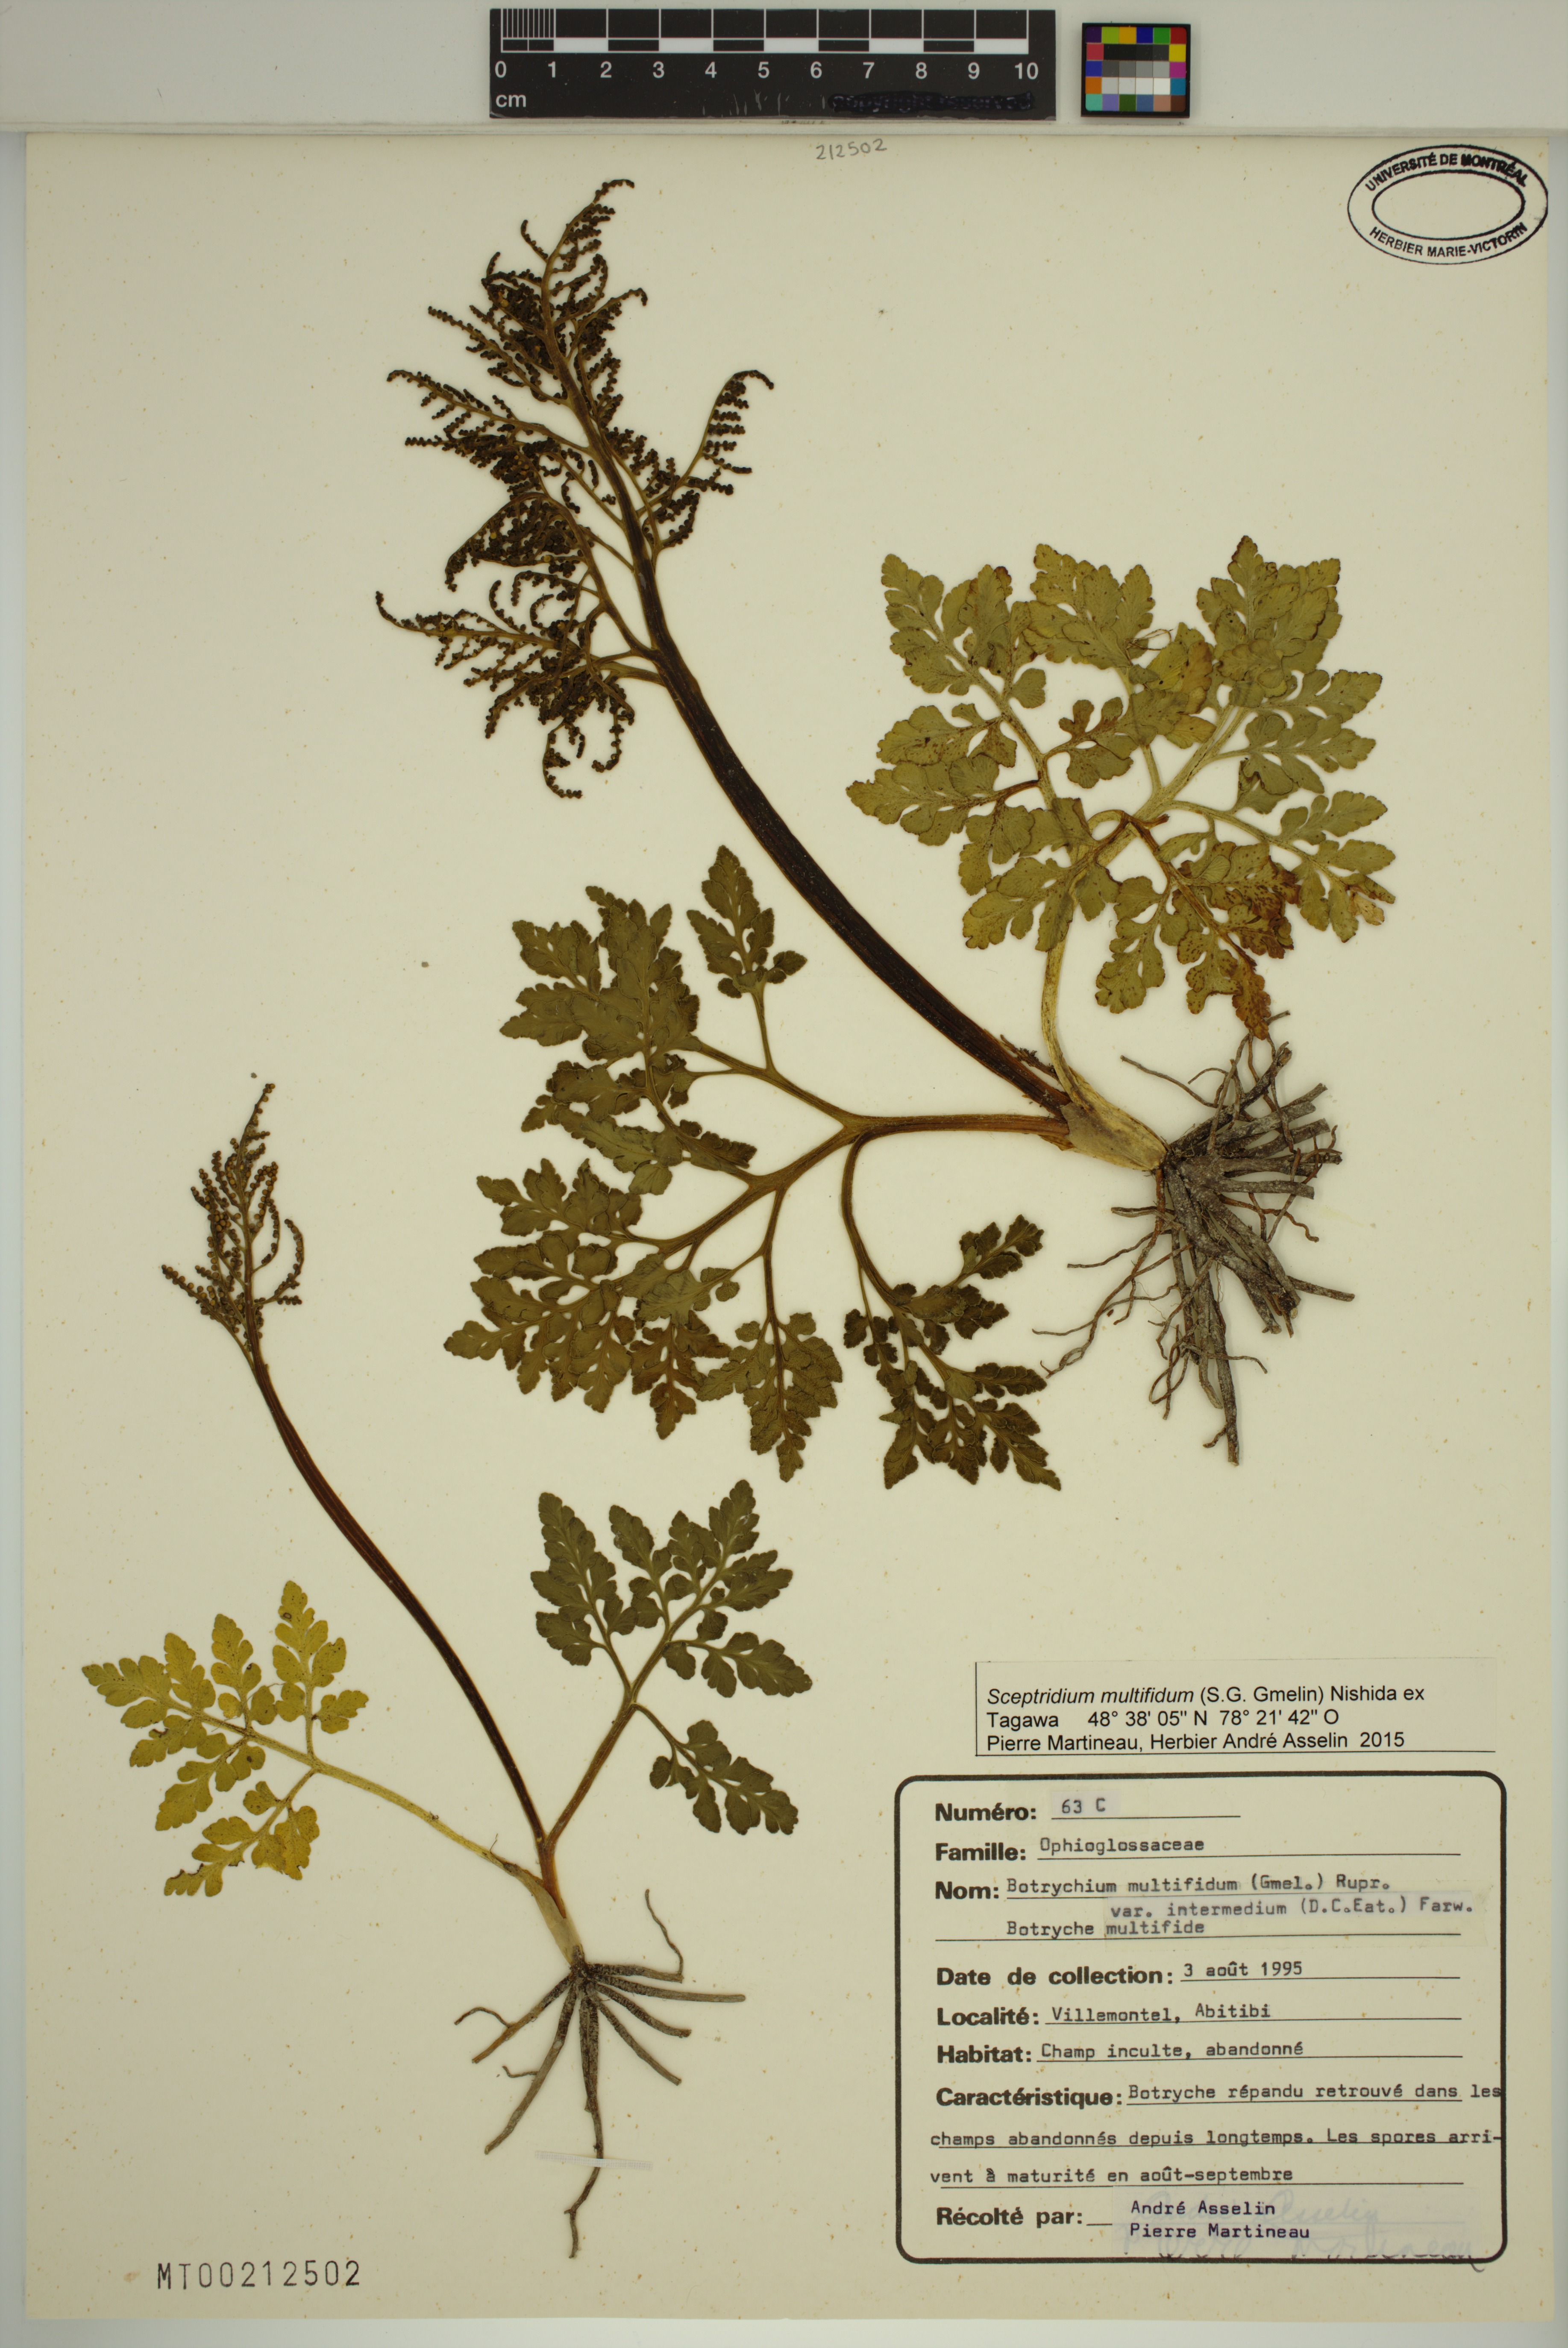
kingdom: Plantae
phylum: Tracheophyta
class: Polypodiopsida
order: Ophioglossales
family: Ophioglossaceae
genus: Sceptridium
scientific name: Sceptridium multifidum
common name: Leathery grape fern
